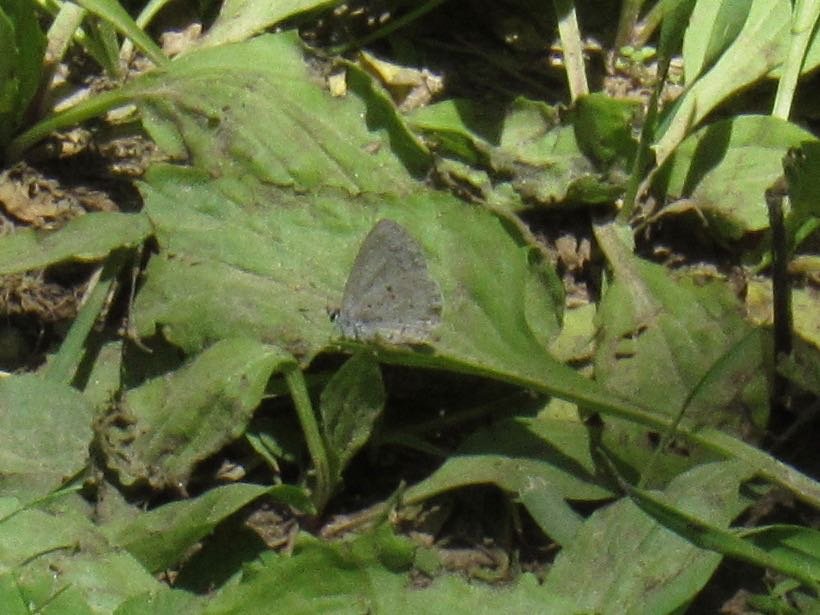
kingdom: Animalia
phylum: Arthropoda
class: Insecta
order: Lepidoptera
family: Lycaenidae
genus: Celastrina
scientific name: Celastrina lucia
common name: Northern Spring Azure
